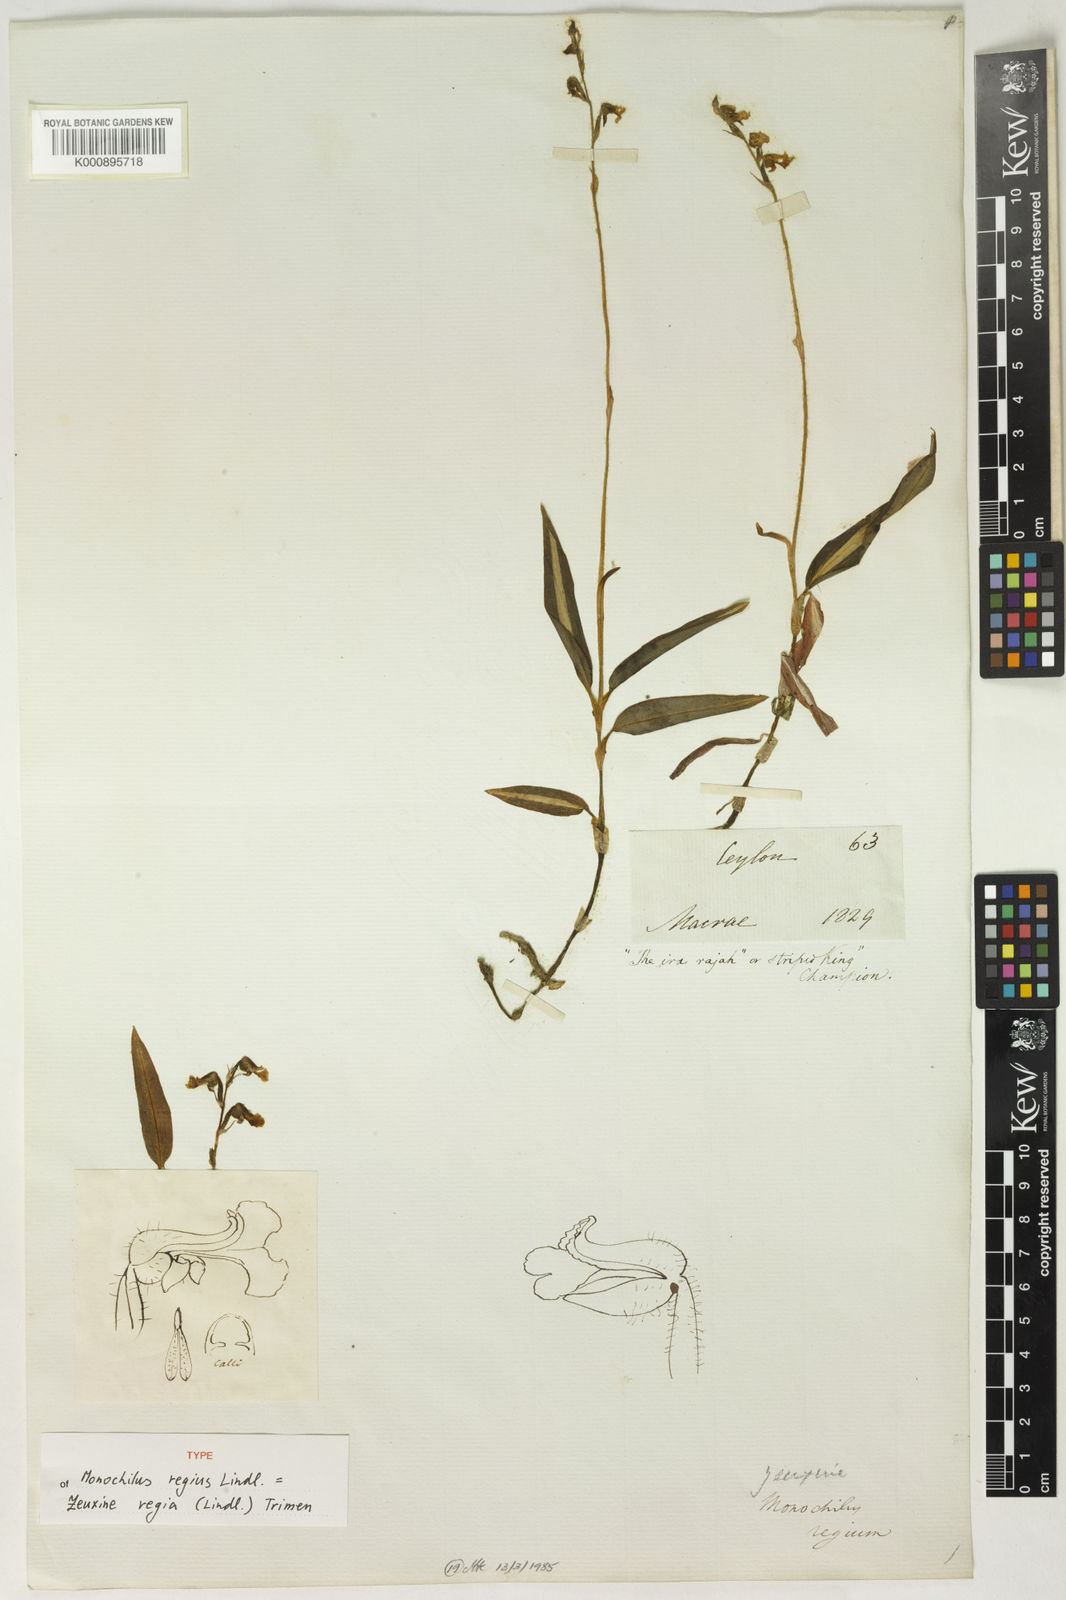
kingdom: Plantae
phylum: Tracheophyta
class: Liliopsida
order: Asparagales
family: Orchidaceae
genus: Zeuxine
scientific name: Zeuxine regia
